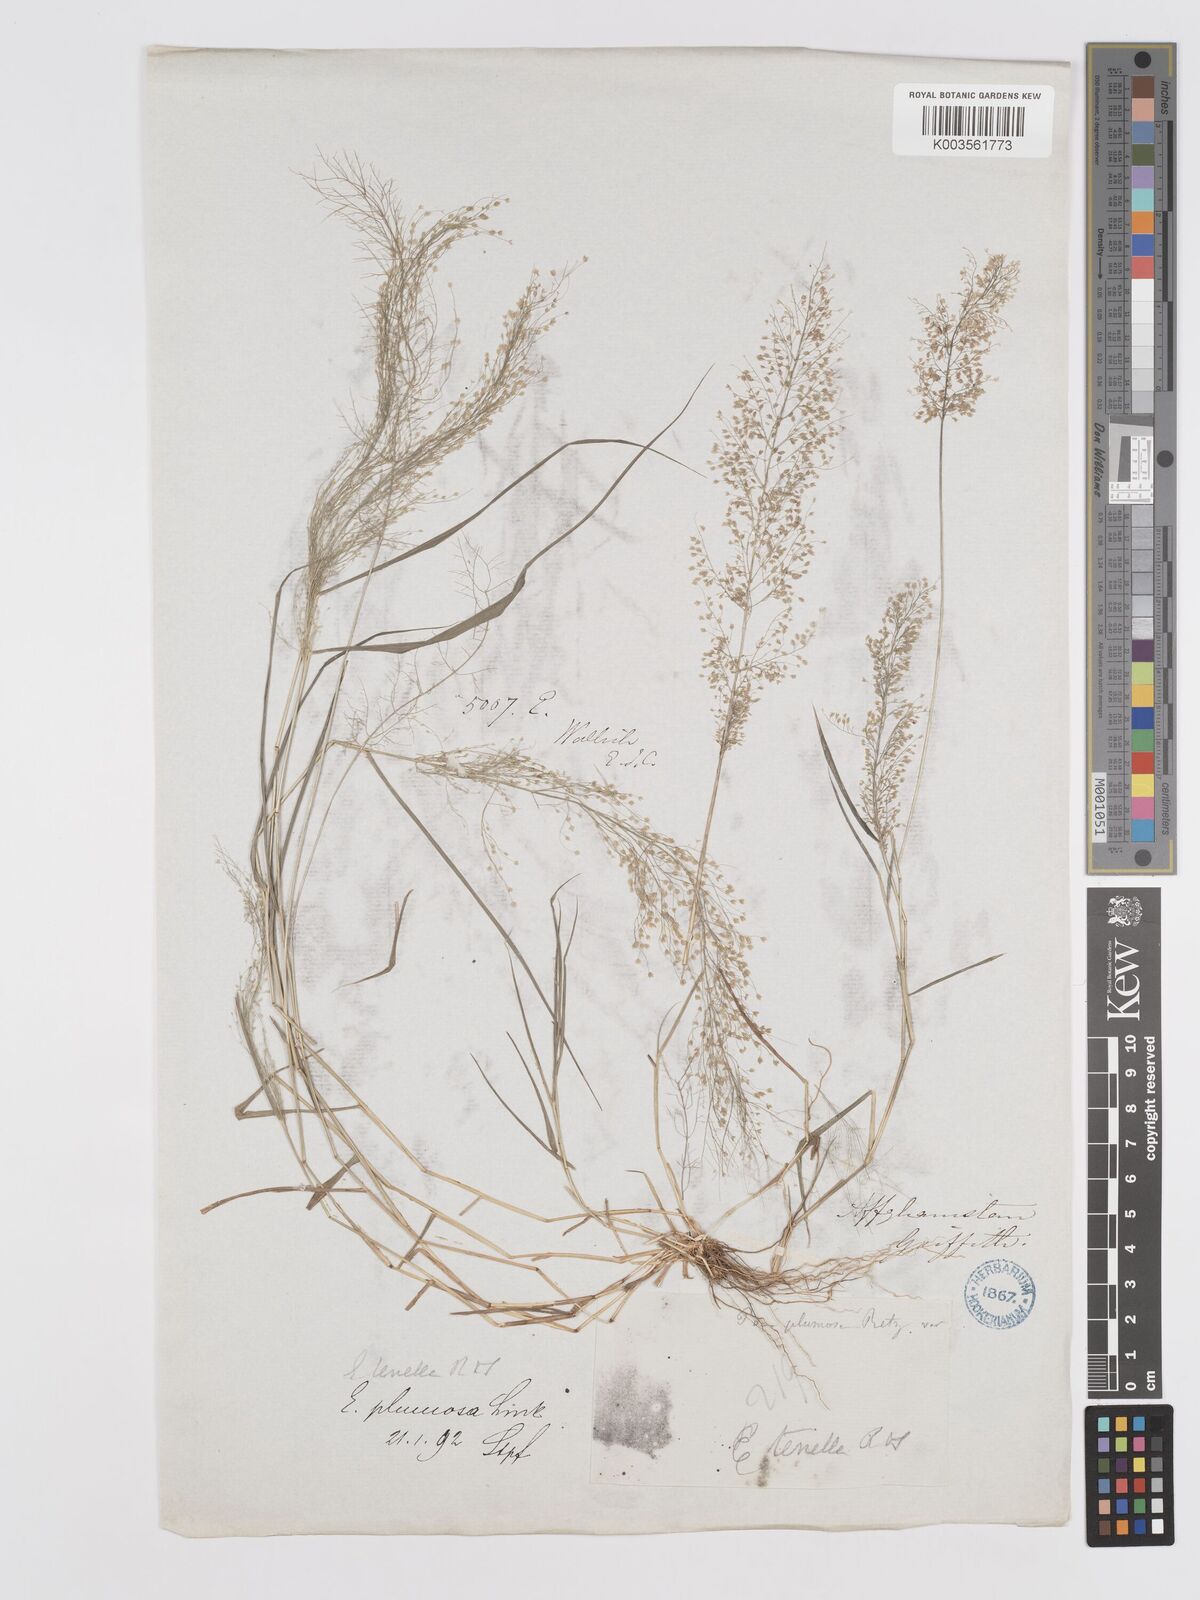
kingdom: Plantae
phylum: Tracheophyta
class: Liliopsida
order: Poales
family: Poaceae
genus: Eragrostis
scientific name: Eragrostis tenella
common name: Japanese lovegrass
